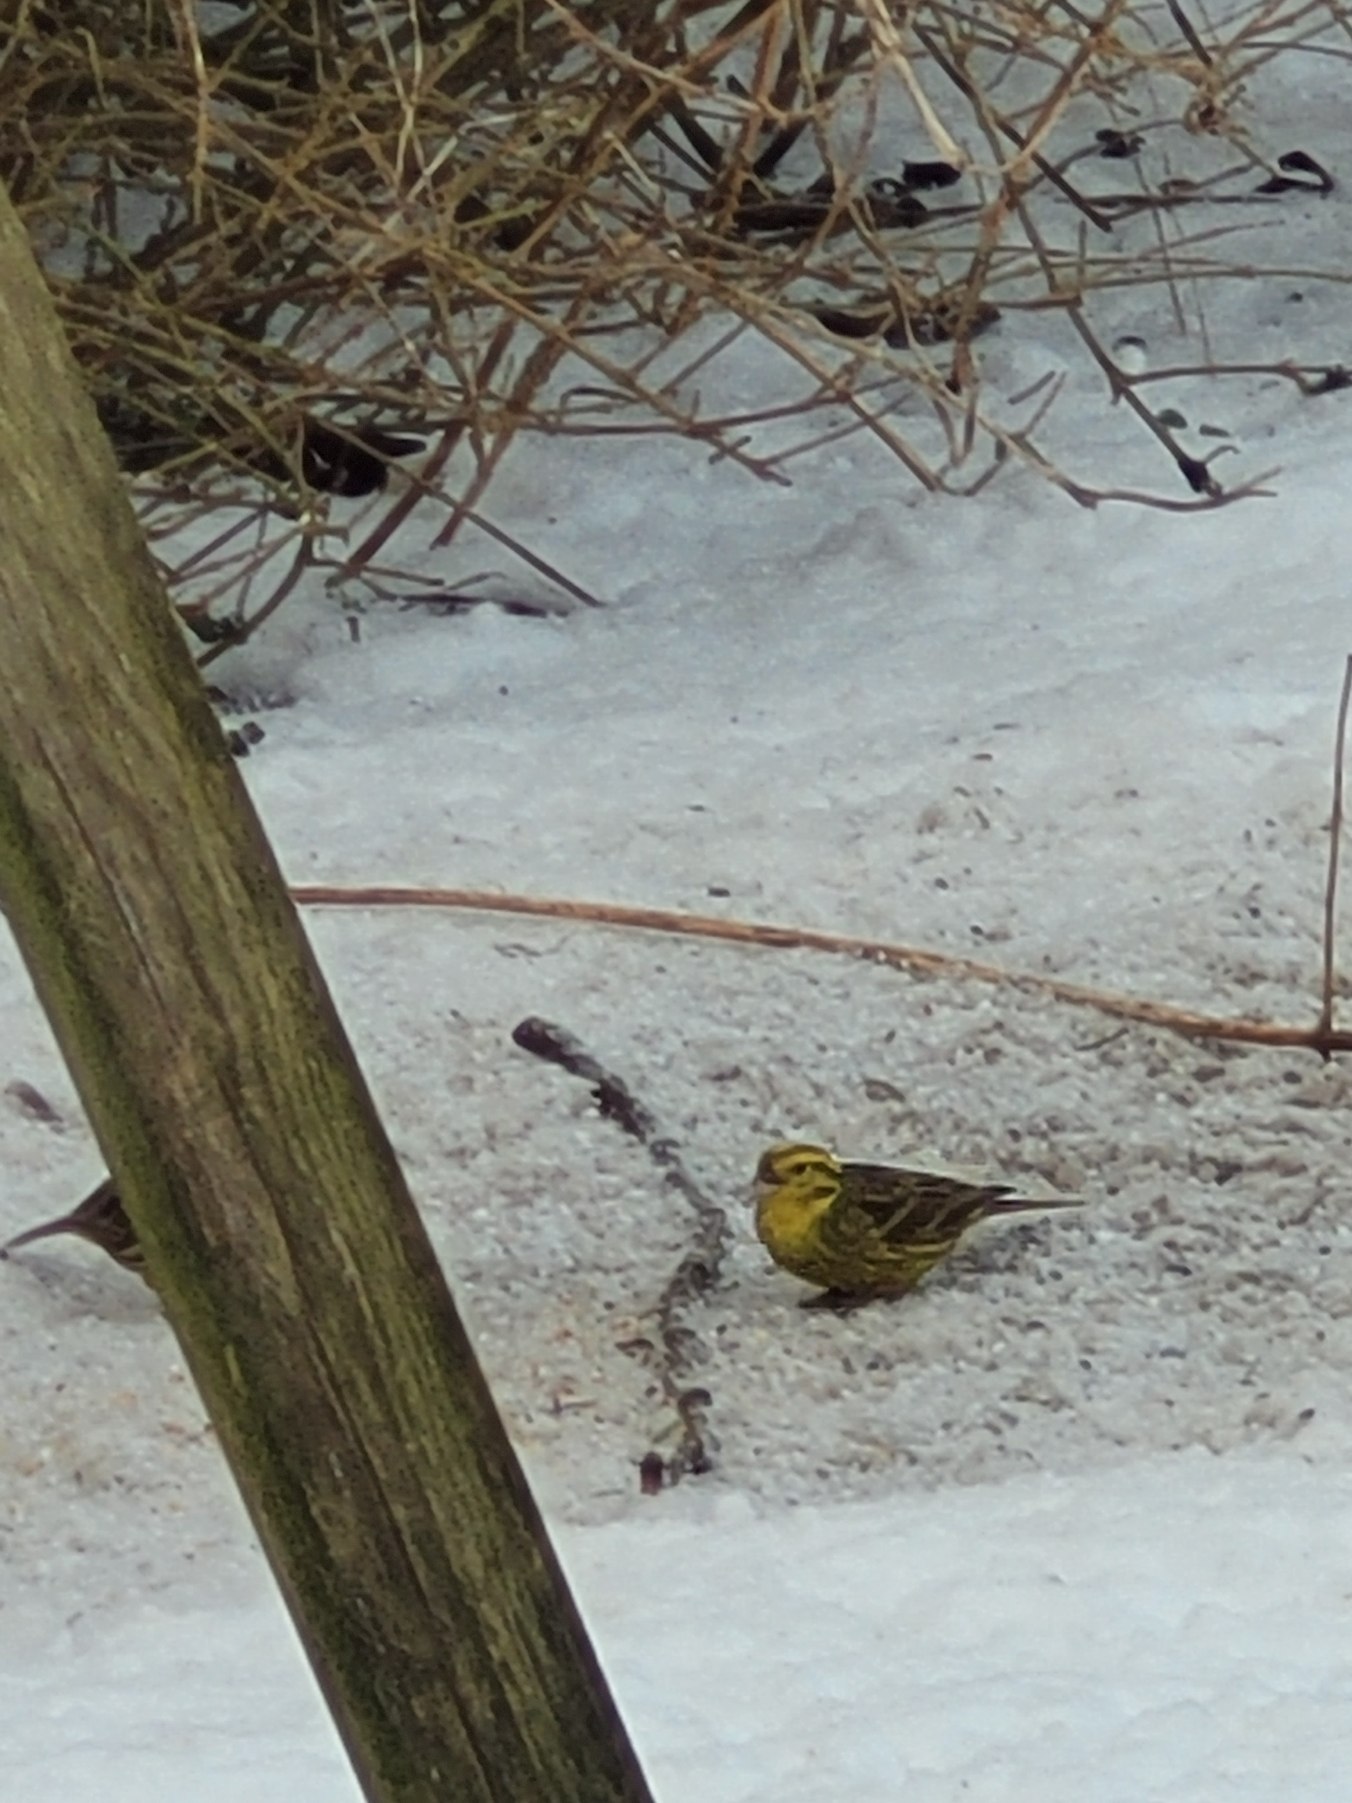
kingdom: Animalia
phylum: Chordata
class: Aves
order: Passeriformes
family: Emberizidae
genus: Emberiza
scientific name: Emberiza citrinella
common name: Gulspurv
